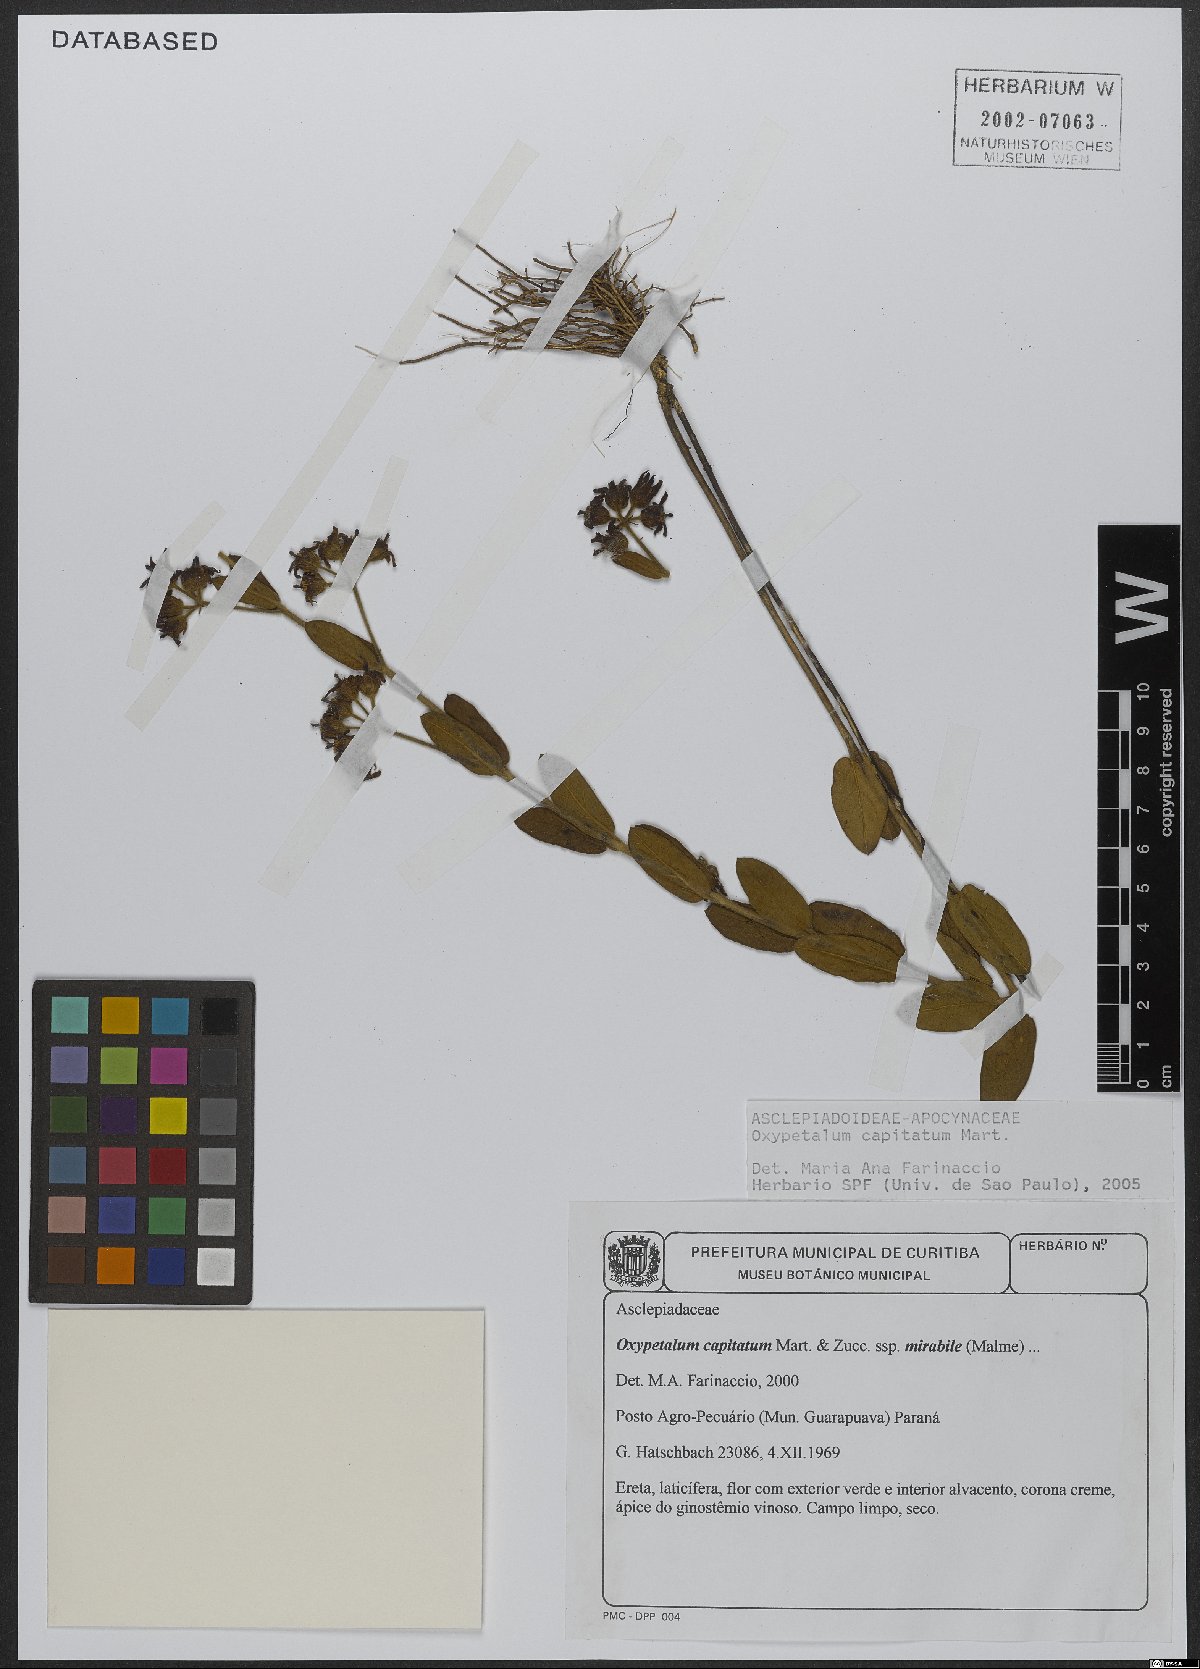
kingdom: Plantae
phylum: Tracheophyta
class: Magnoliopsida
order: Gentianales
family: Apocynaceae
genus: Oxypetalum
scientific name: Oxypetalum capitatum
